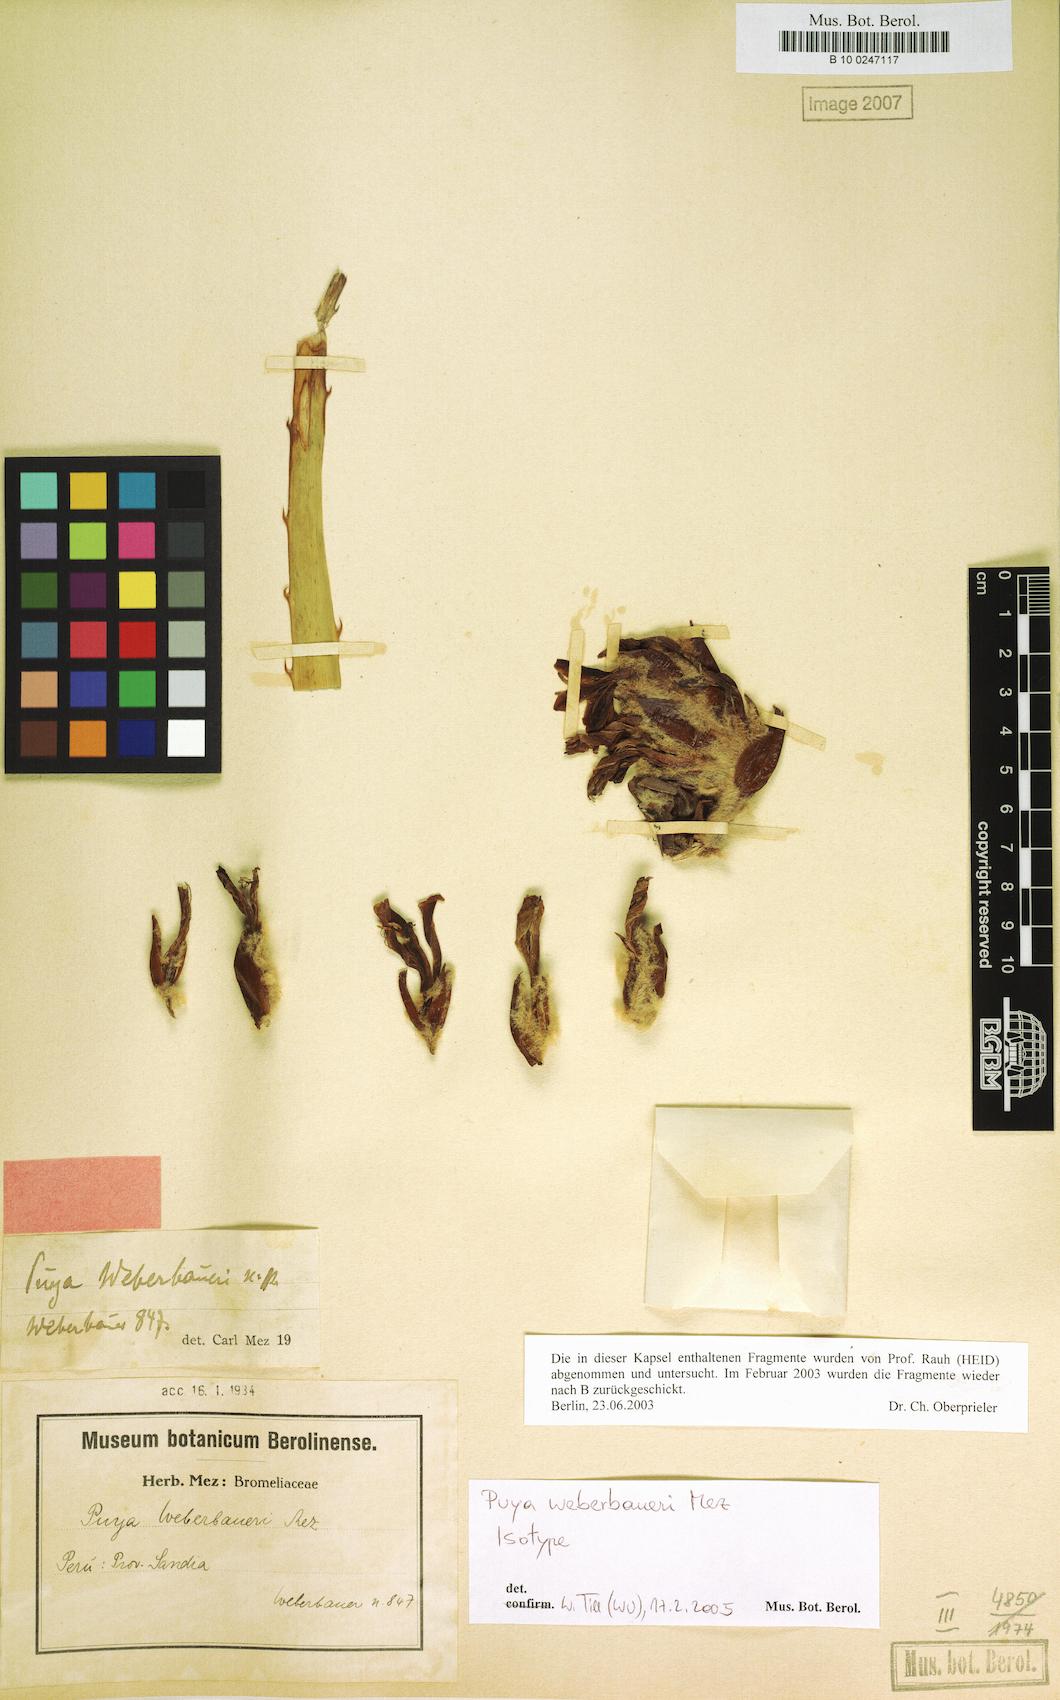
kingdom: Plantae
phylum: Tracheophyta
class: Liliopsida
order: Poales
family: Bromeliaceae
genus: Puya
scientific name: Puya weberbaueri
